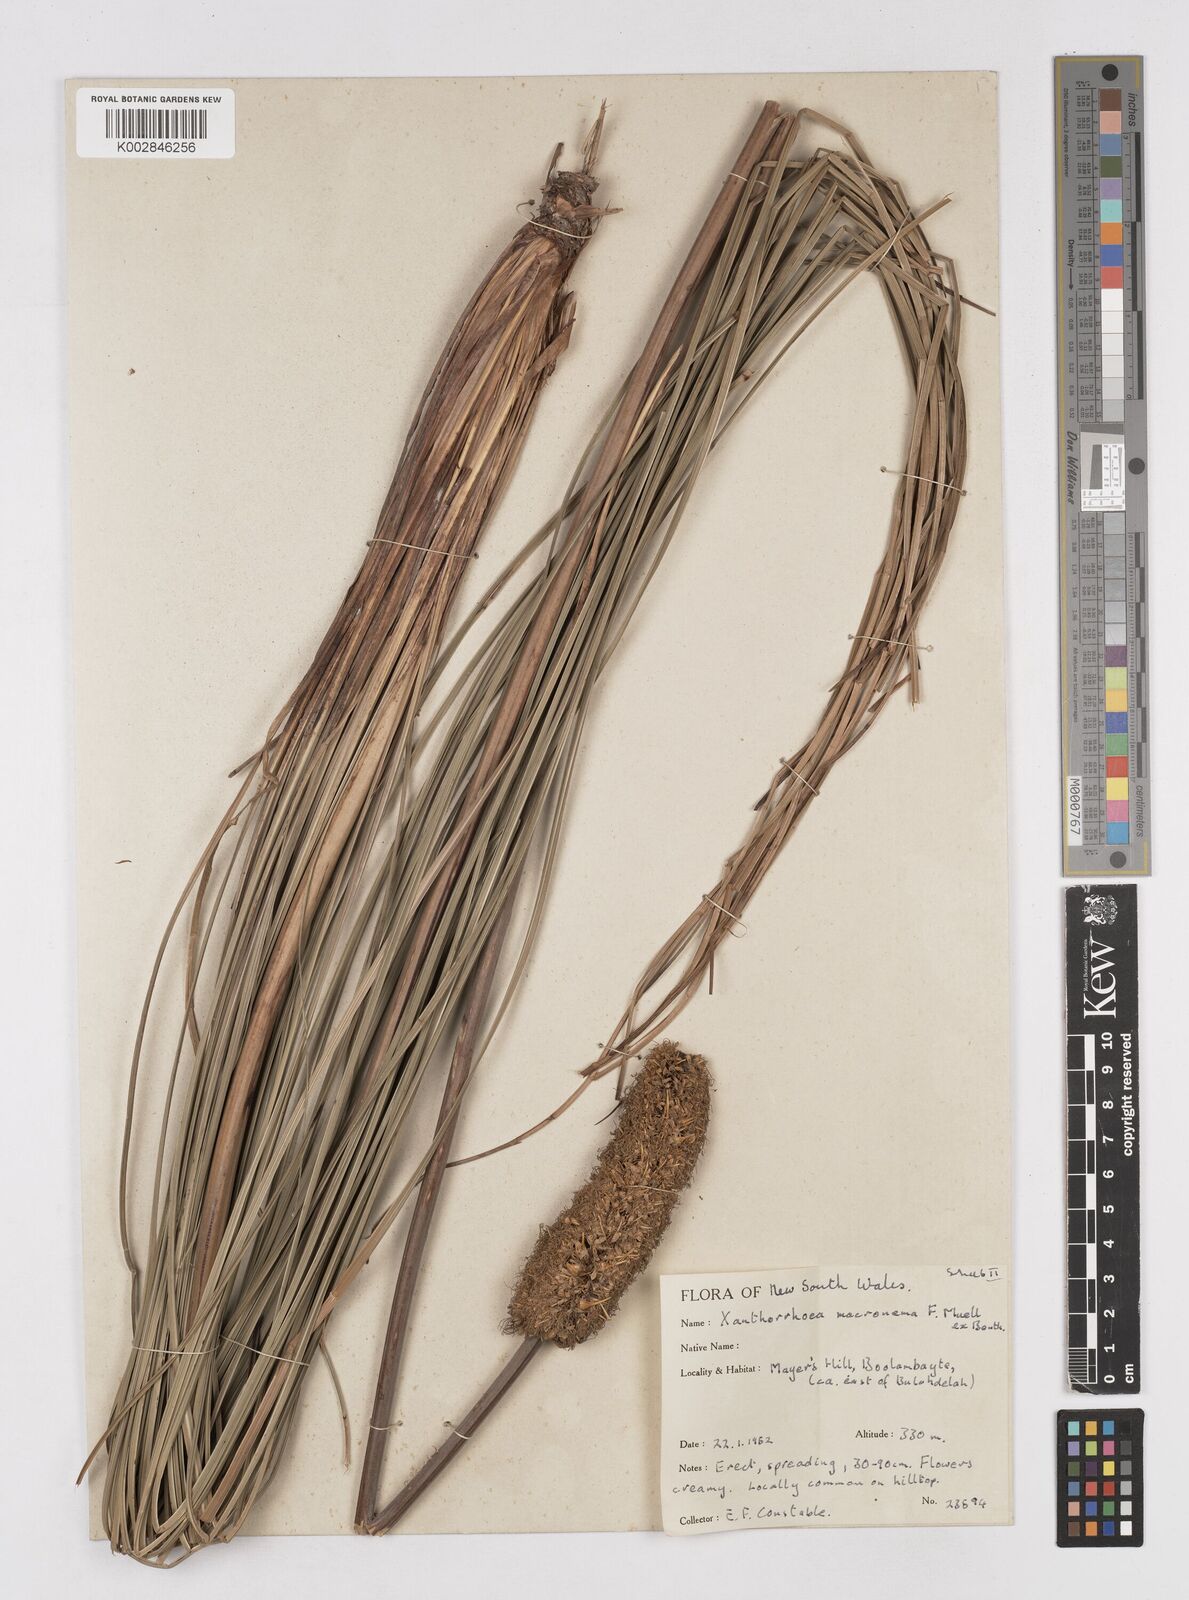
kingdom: Plantae
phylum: Tracheophyta
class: Liliopsida
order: Asparagales
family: Asphodelaceae
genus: Xanthorrhoea
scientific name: Xanthorrhoea macronema
